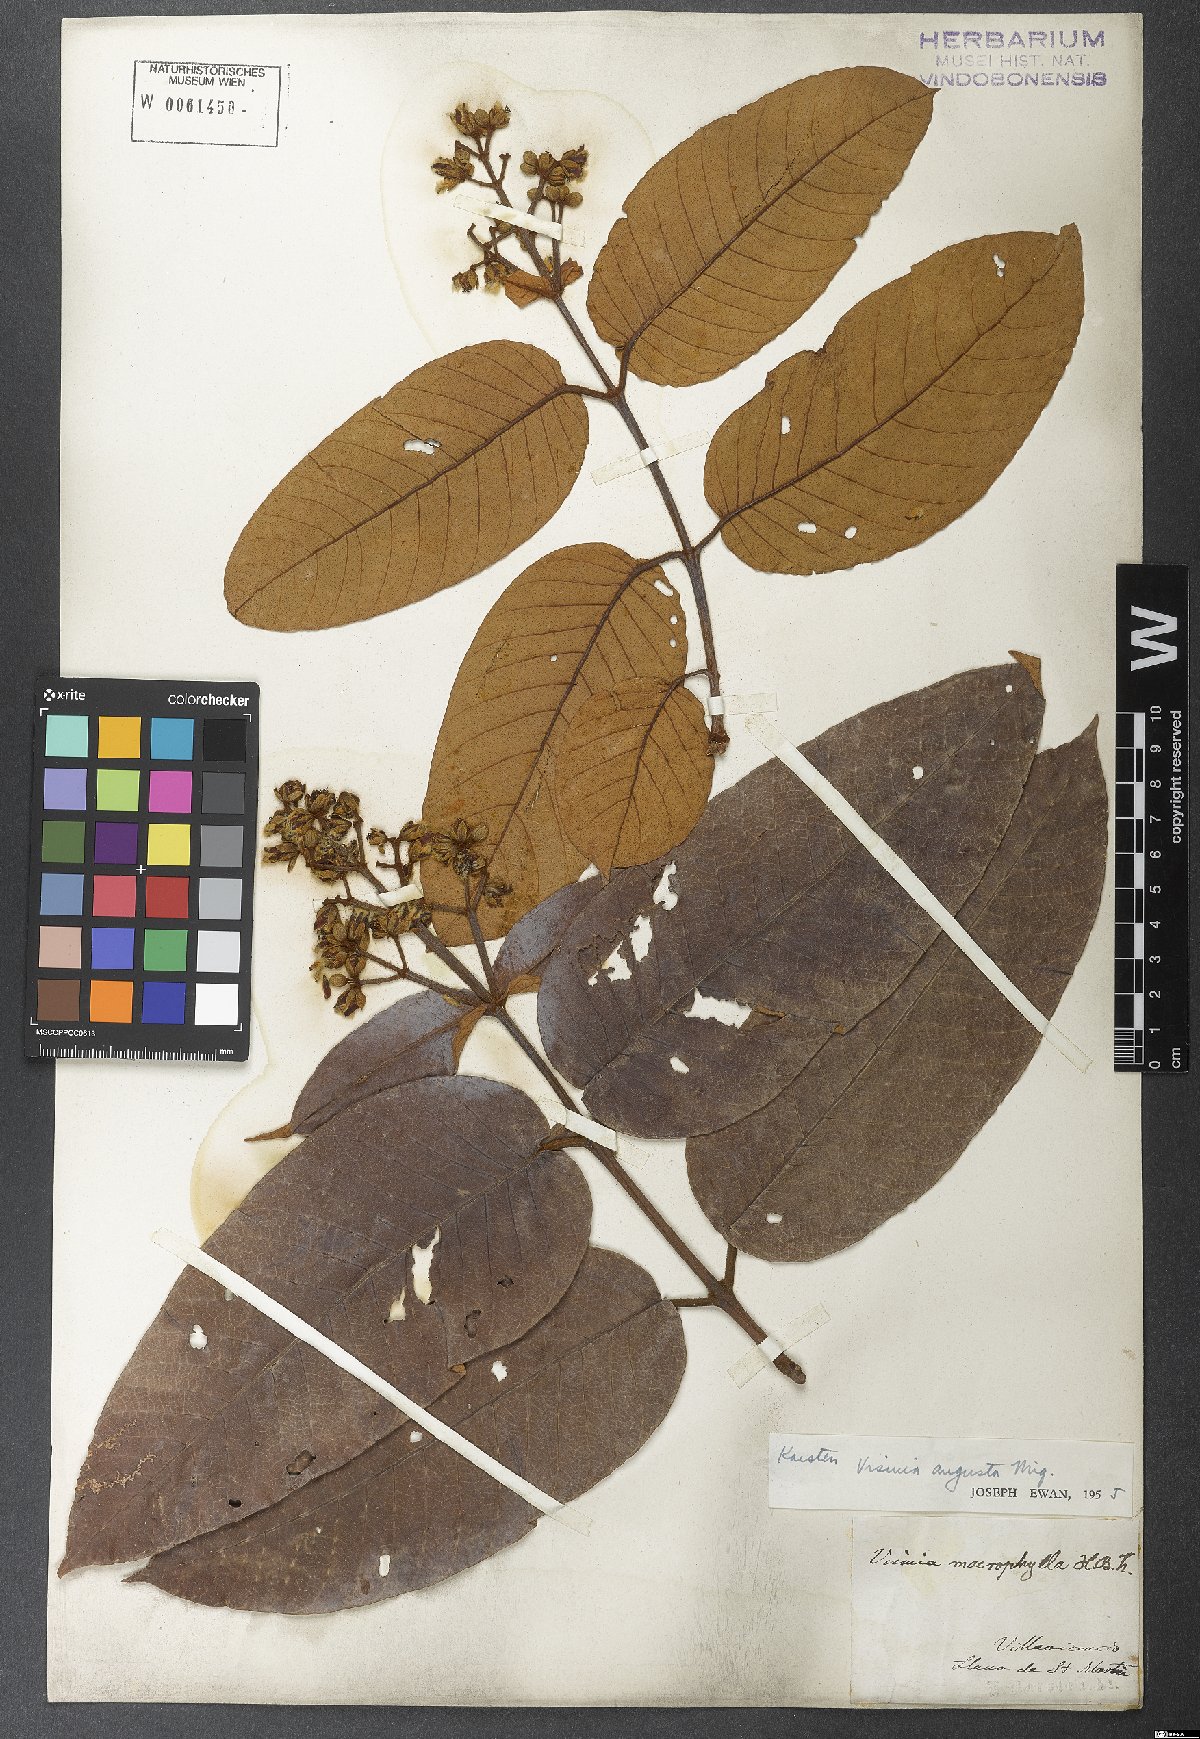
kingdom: Plantae
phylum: Tracheophyta
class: Magnoliopsida
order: Malpighiales
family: Hypericaceae
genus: Vismia
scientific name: Vismia macrophylla
